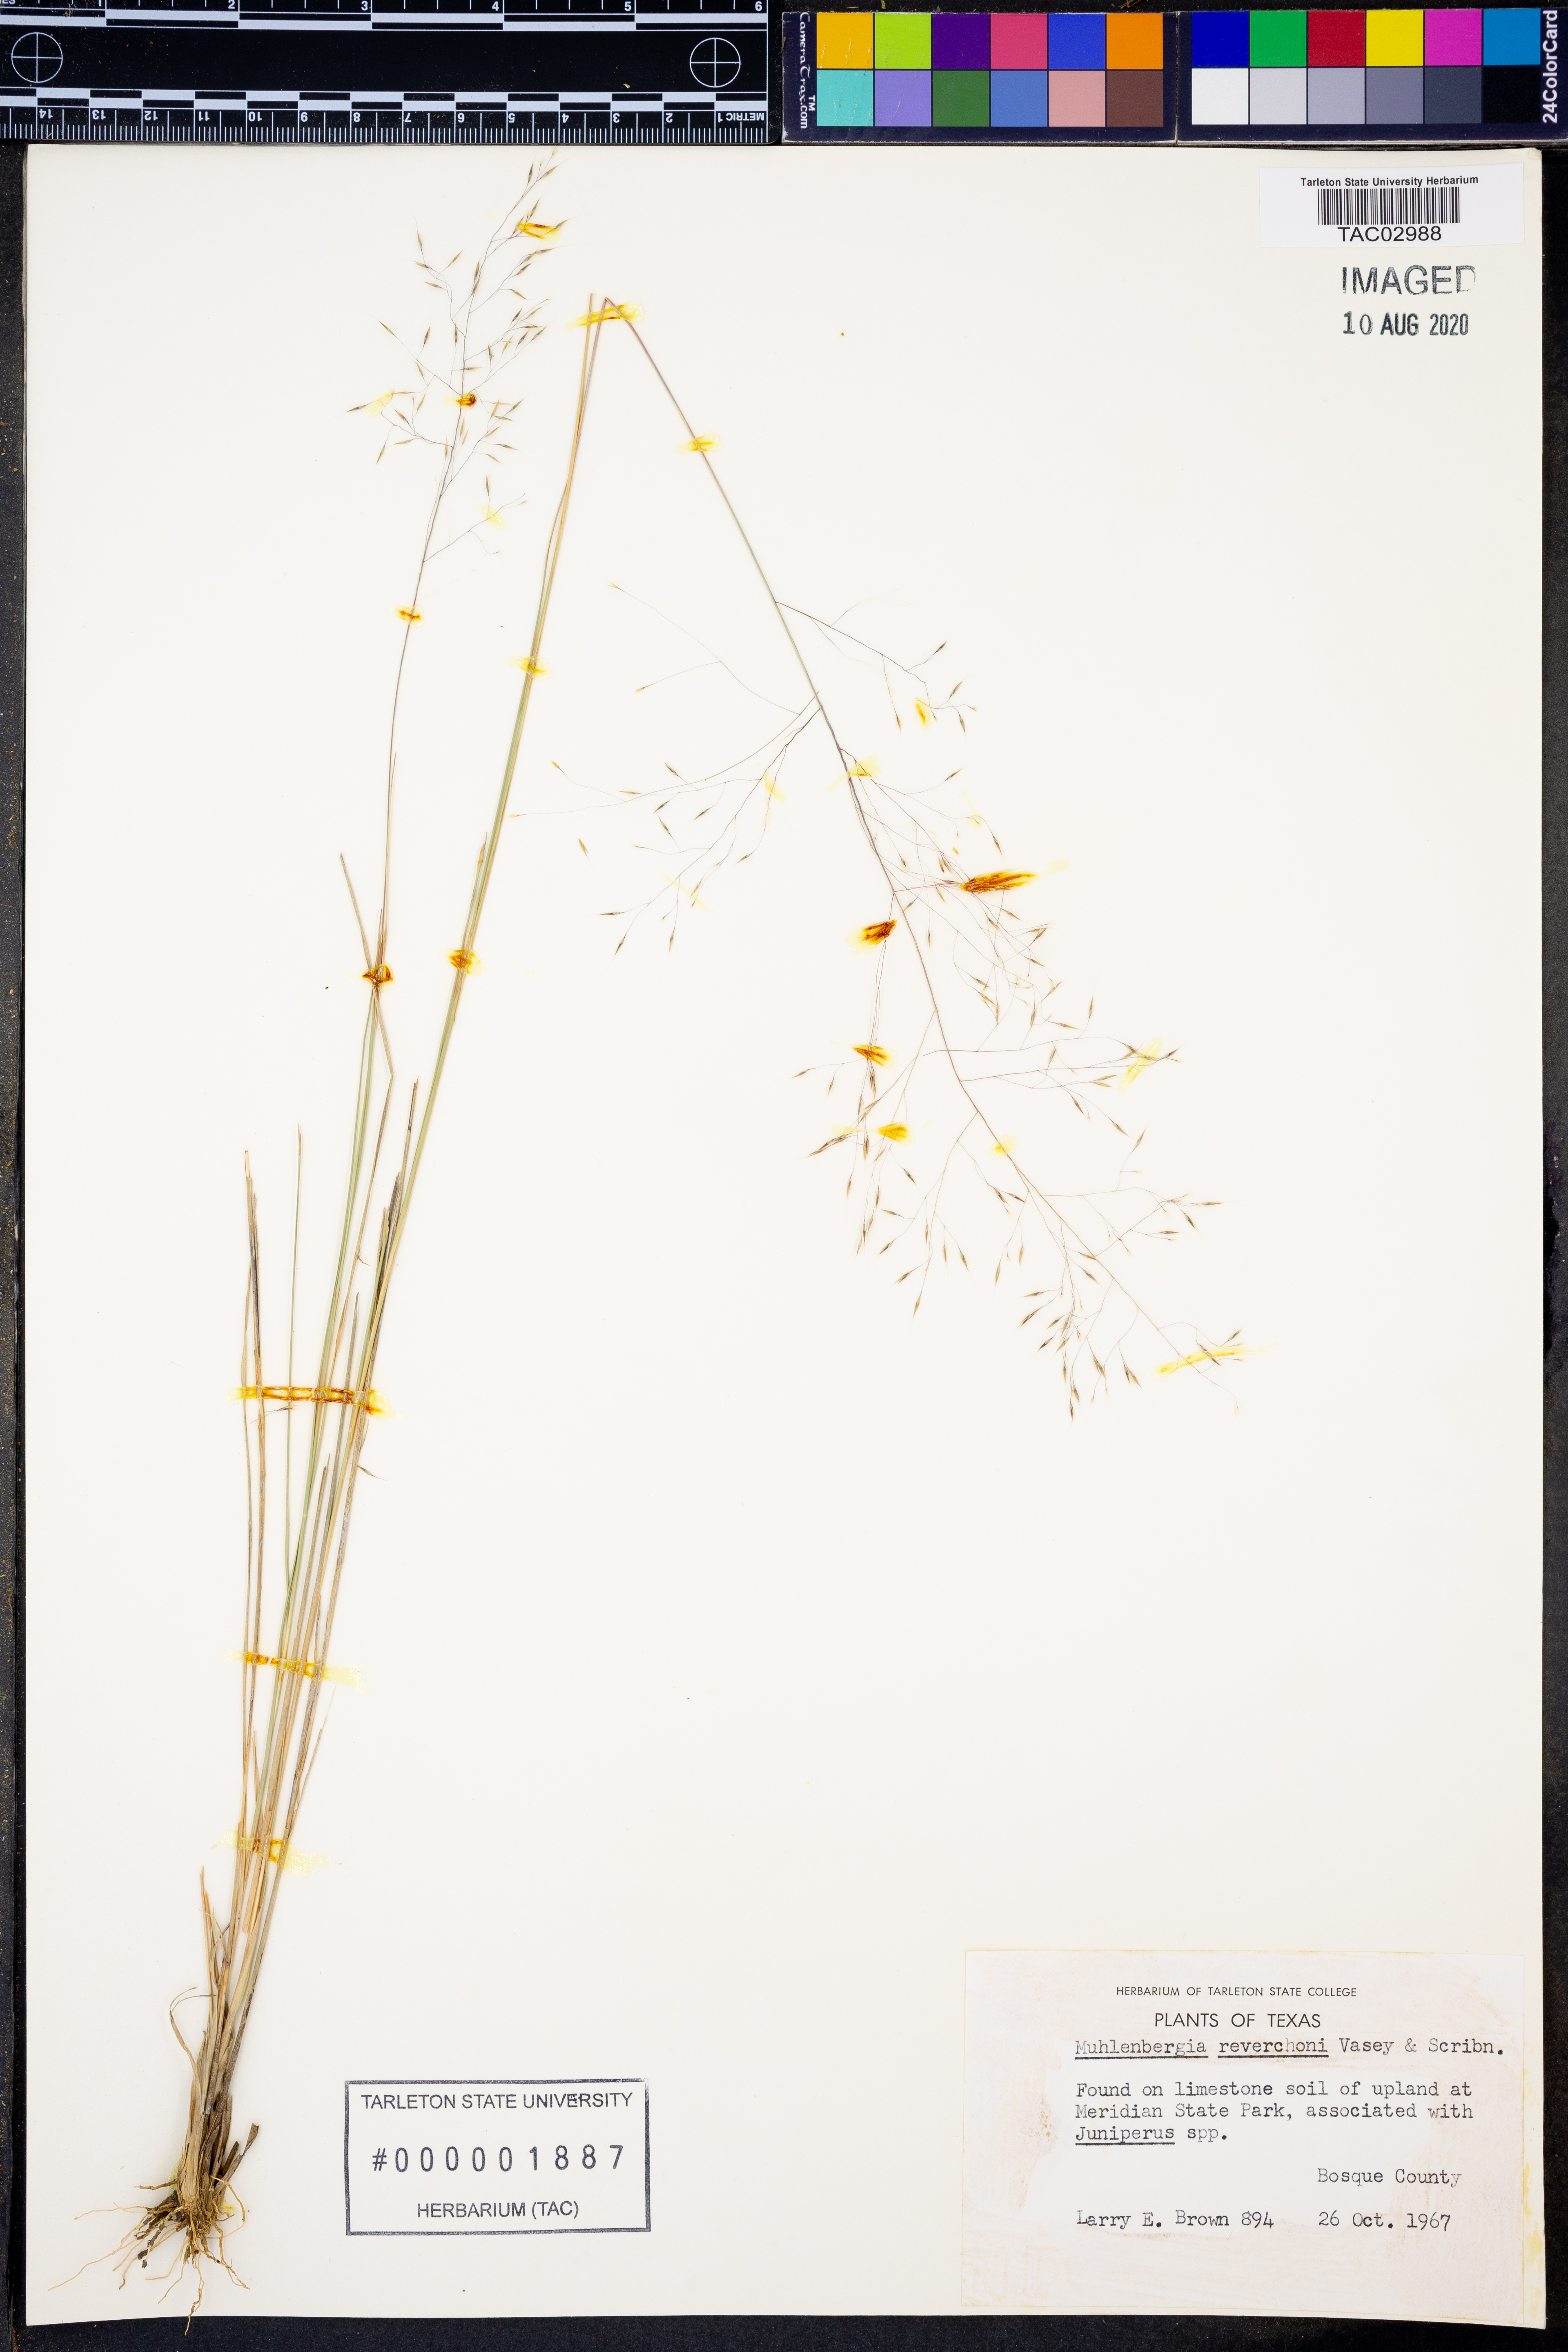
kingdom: Plantae
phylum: Tracheophyta
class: Liliopsida
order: Poales
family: Poaceae
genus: Muhlenbergia
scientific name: Muhlenbergia reverchonii
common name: Seep muhly
